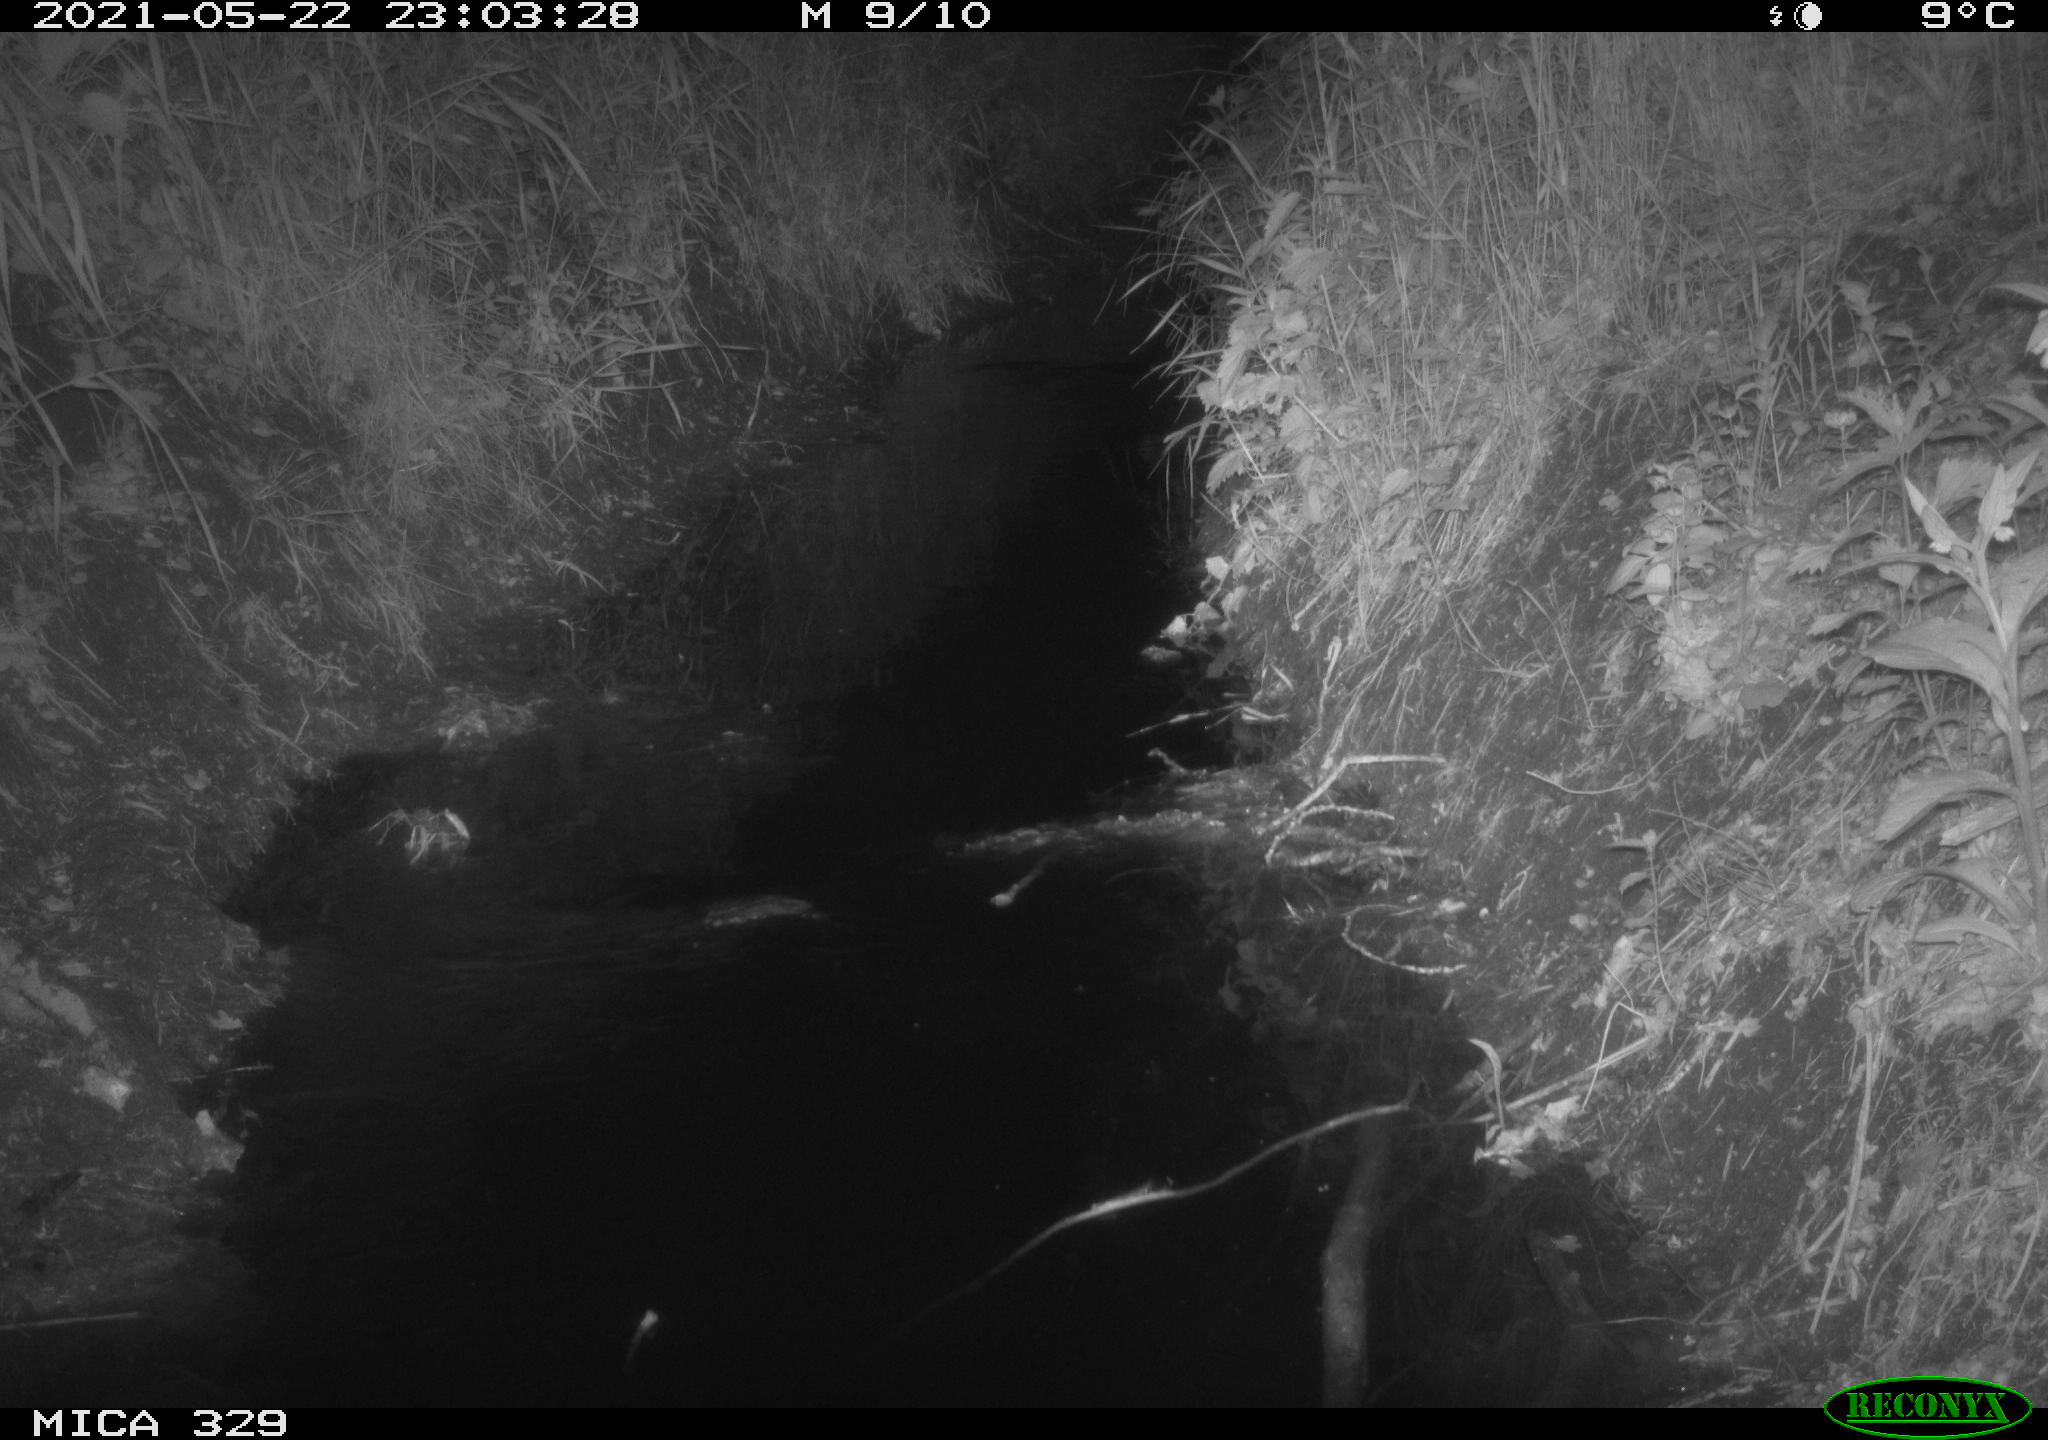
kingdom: Animalia
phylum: Chordata
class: Mammalia
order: Rodentia
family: Muridae
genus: Rattus
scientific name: Rattus norvegicus
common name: Brown rat
